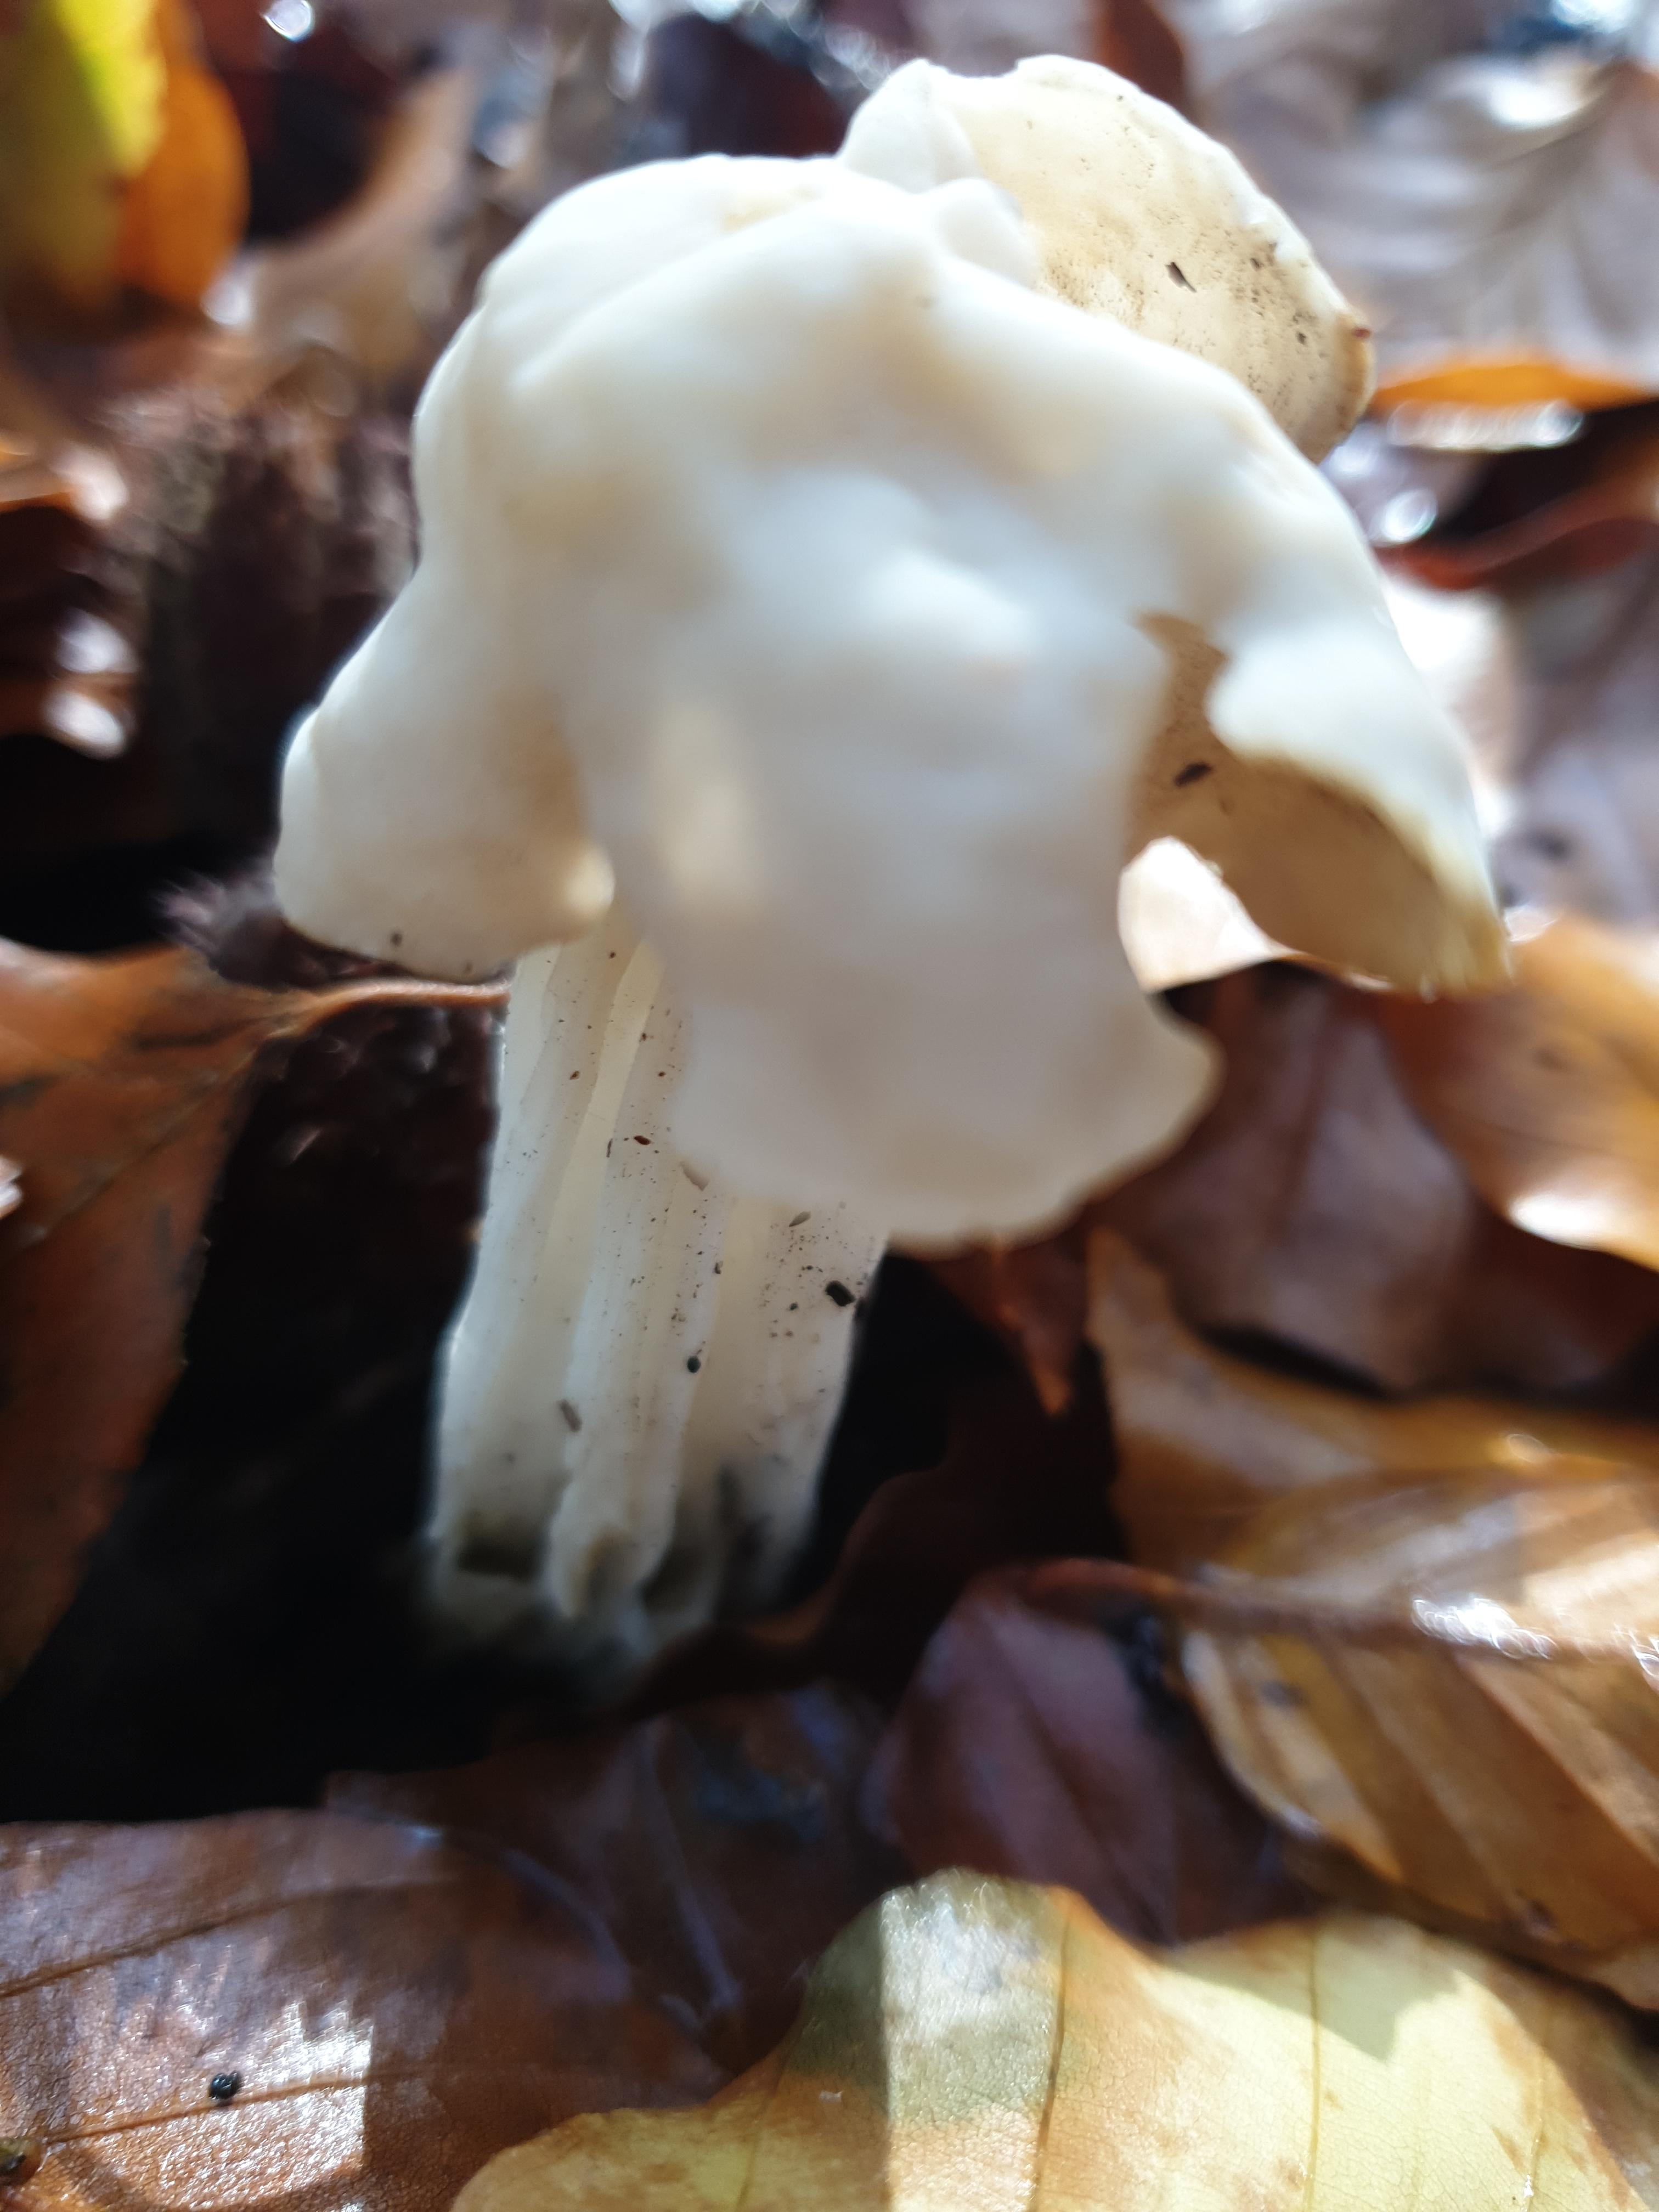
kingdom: Fungi
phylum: Ascomycota
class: Pezizomycetes
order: Pezizales
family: Helvellaceae
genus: Helvella
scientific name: Helvella crispa
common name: kruset foldhat
